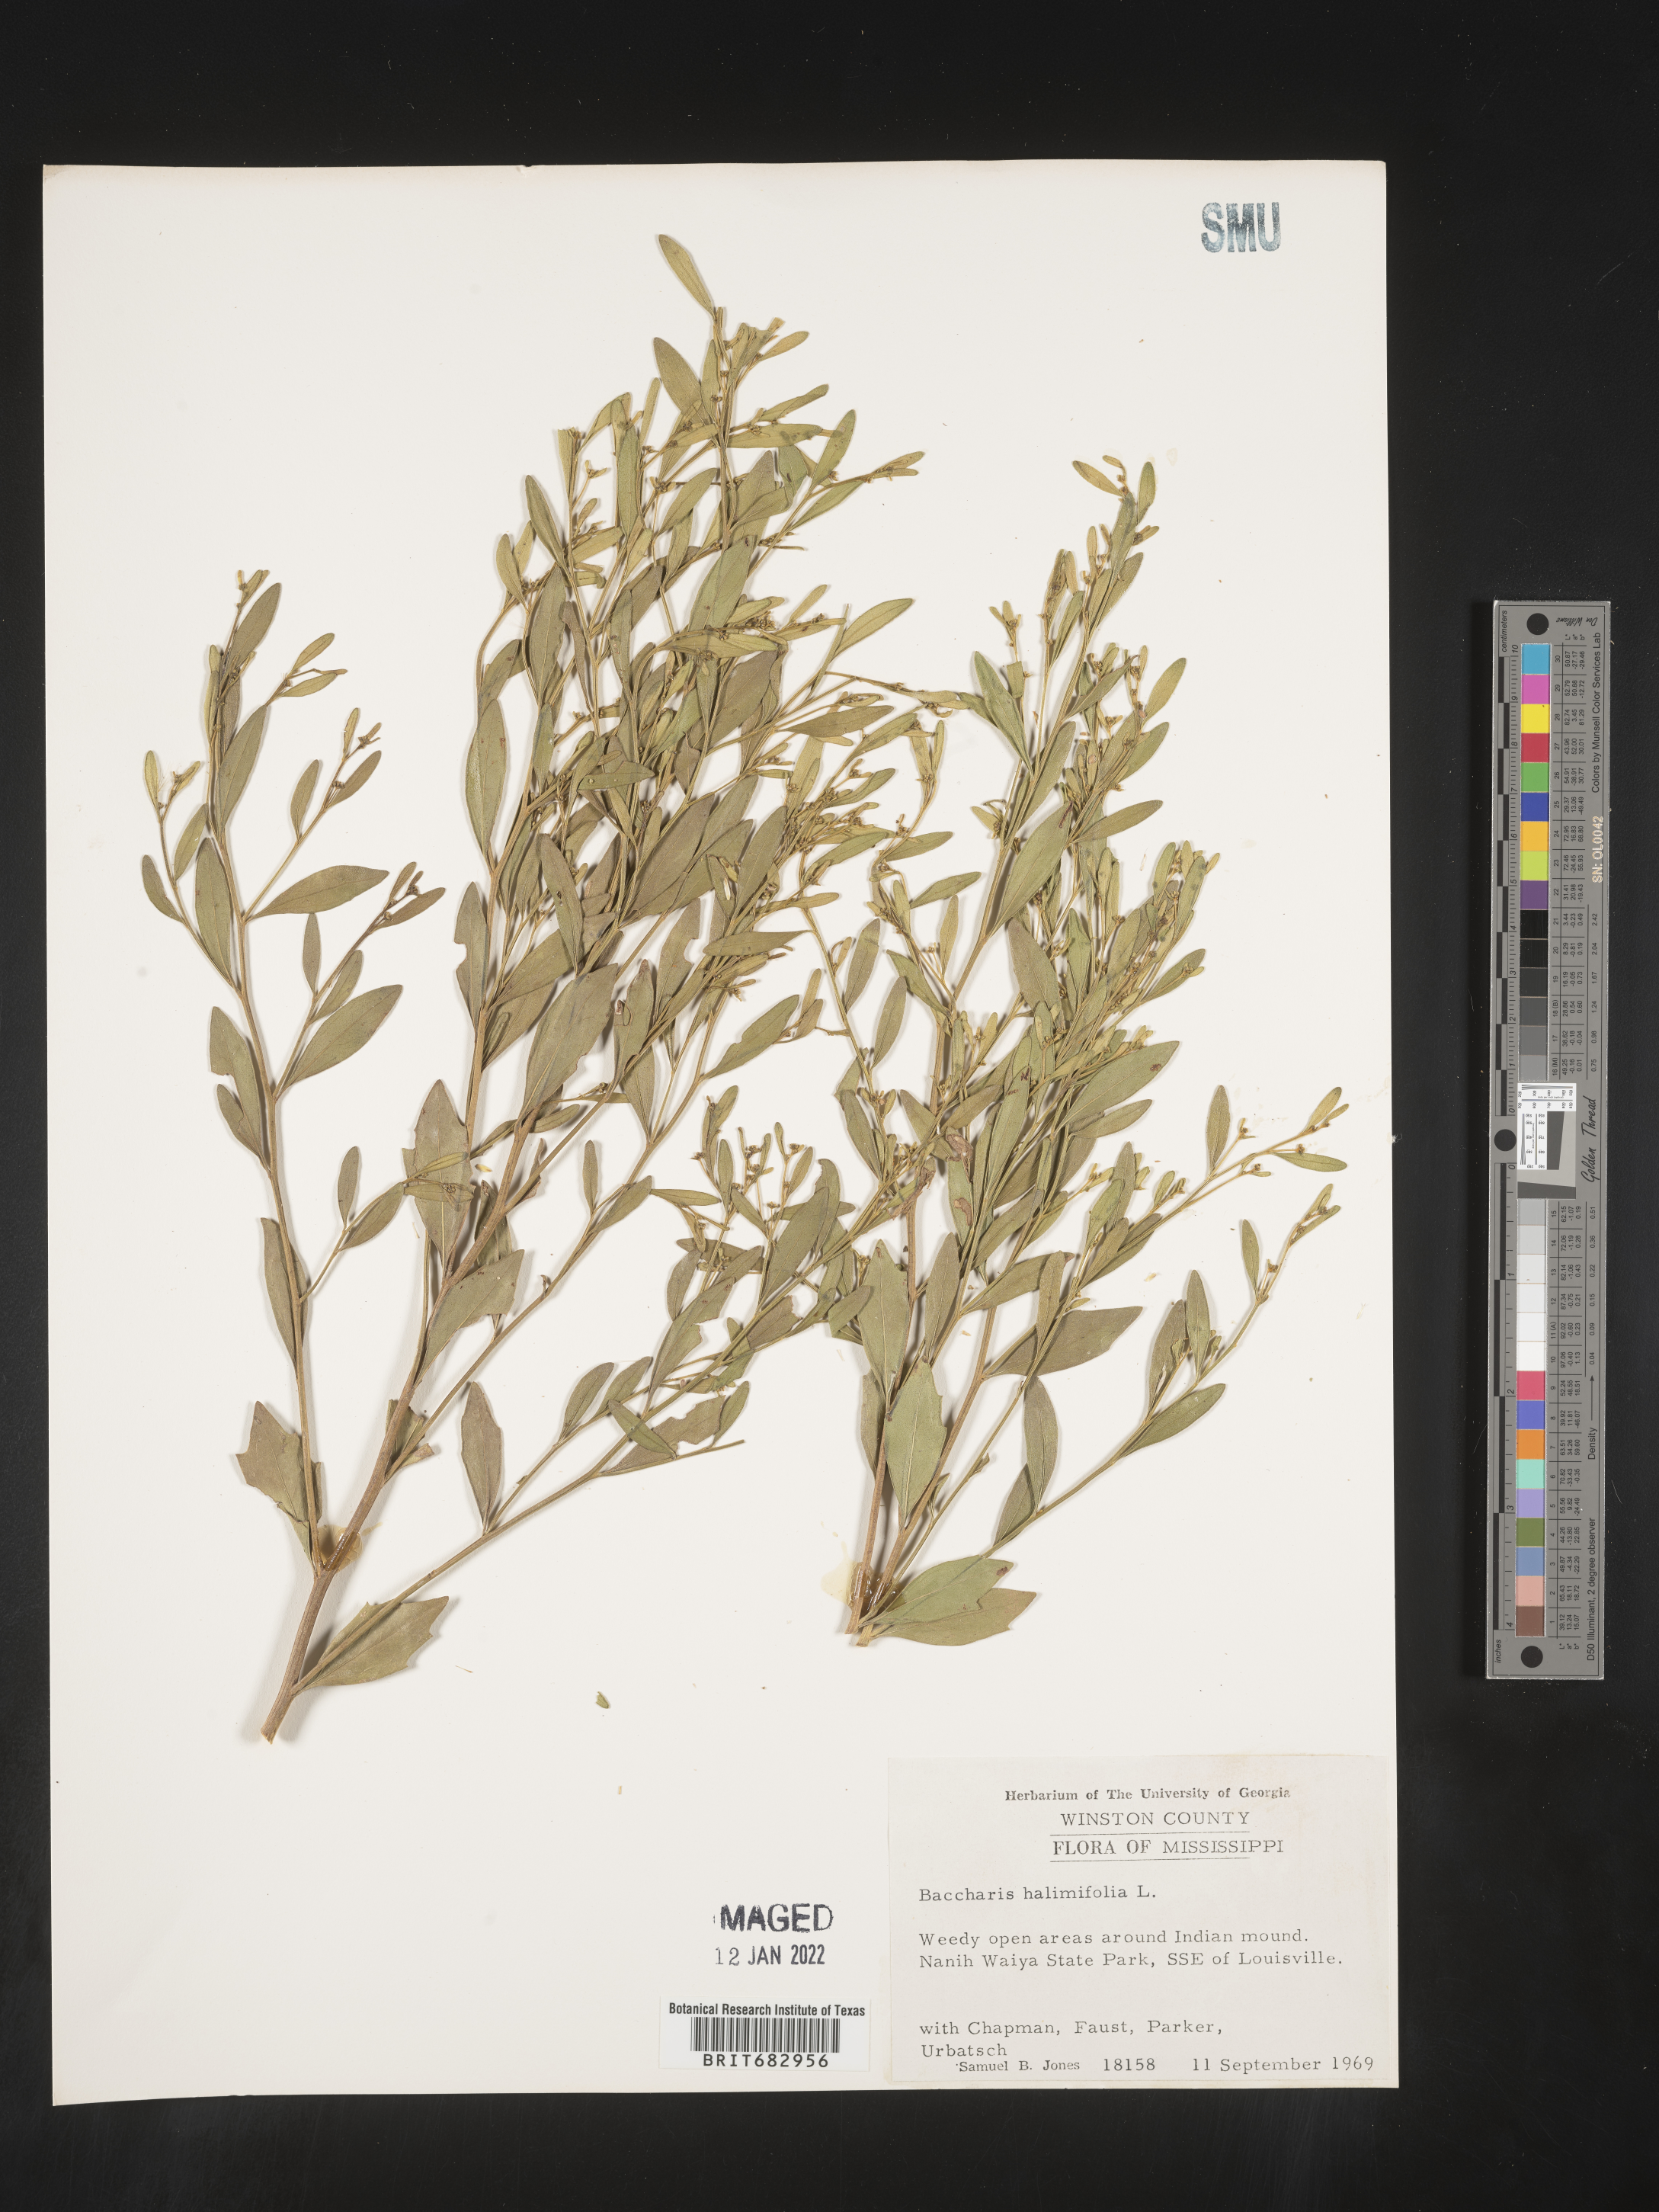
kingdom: Plantae
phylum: Tracheophyta
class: Magnoliopsida
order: Asterales
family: Asteraceae
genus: Nidorella
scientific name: Nidorella ivifolia
